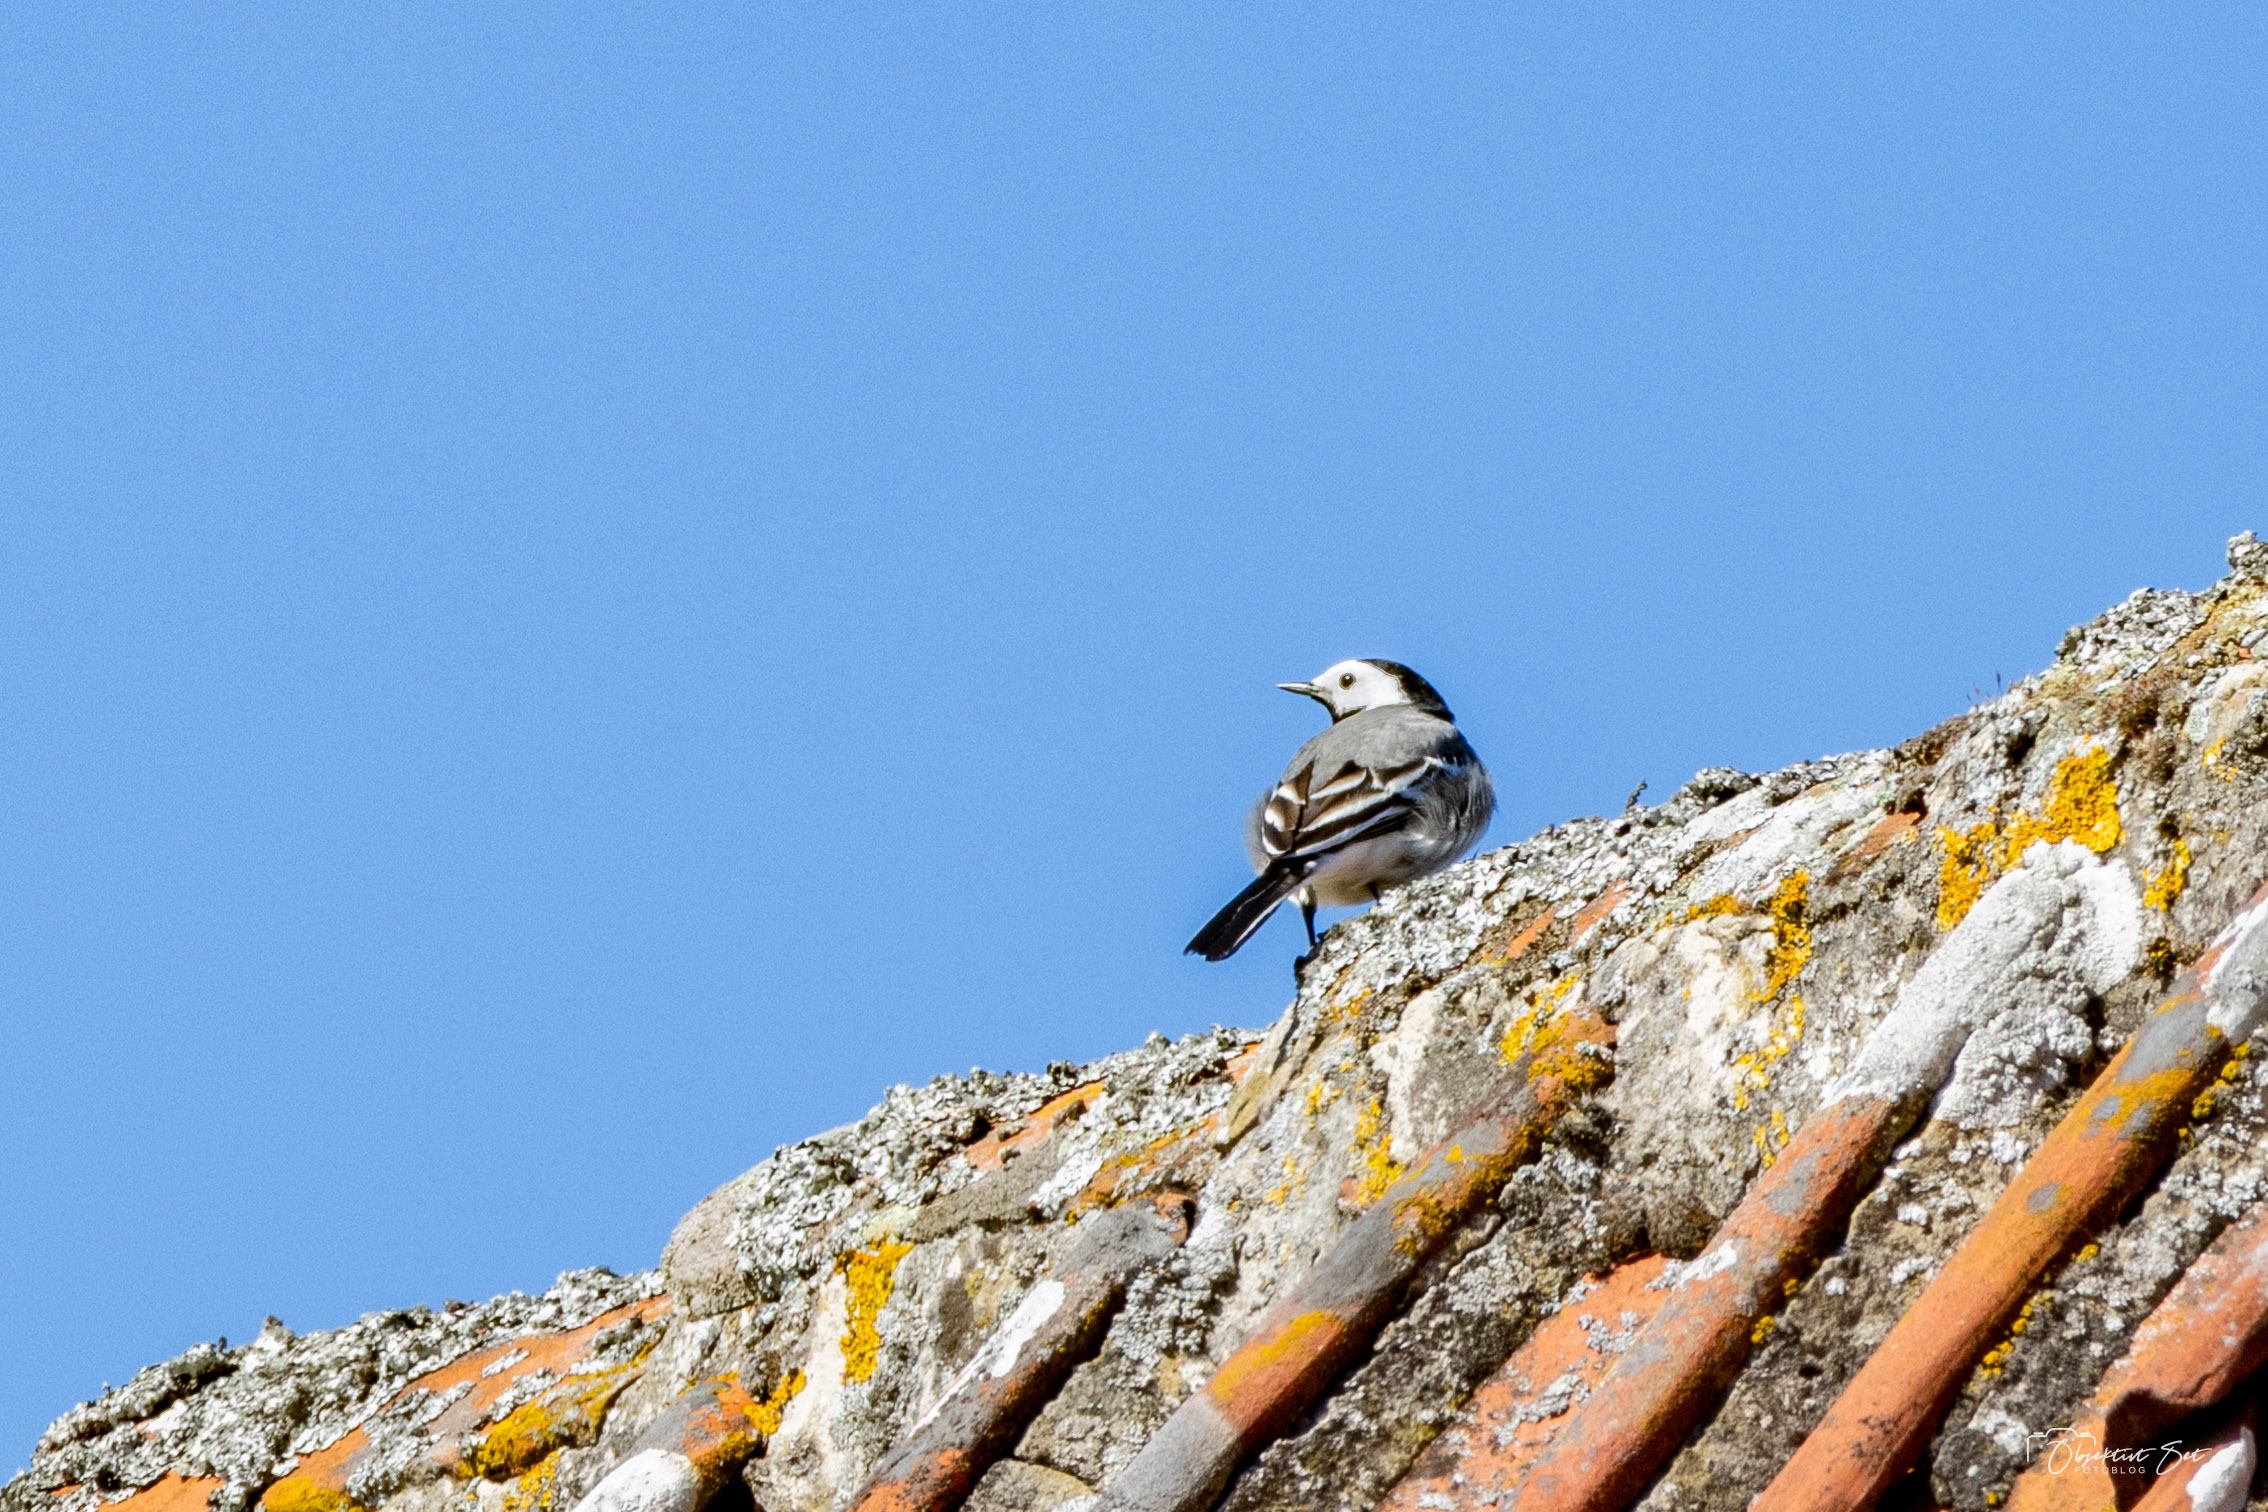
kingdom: Animalia
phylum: Chordata
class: Aves
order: Passeriformes
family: Motacillidae
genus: Motacilla
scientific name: Motacilla alba
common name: Hvid vipstjert
